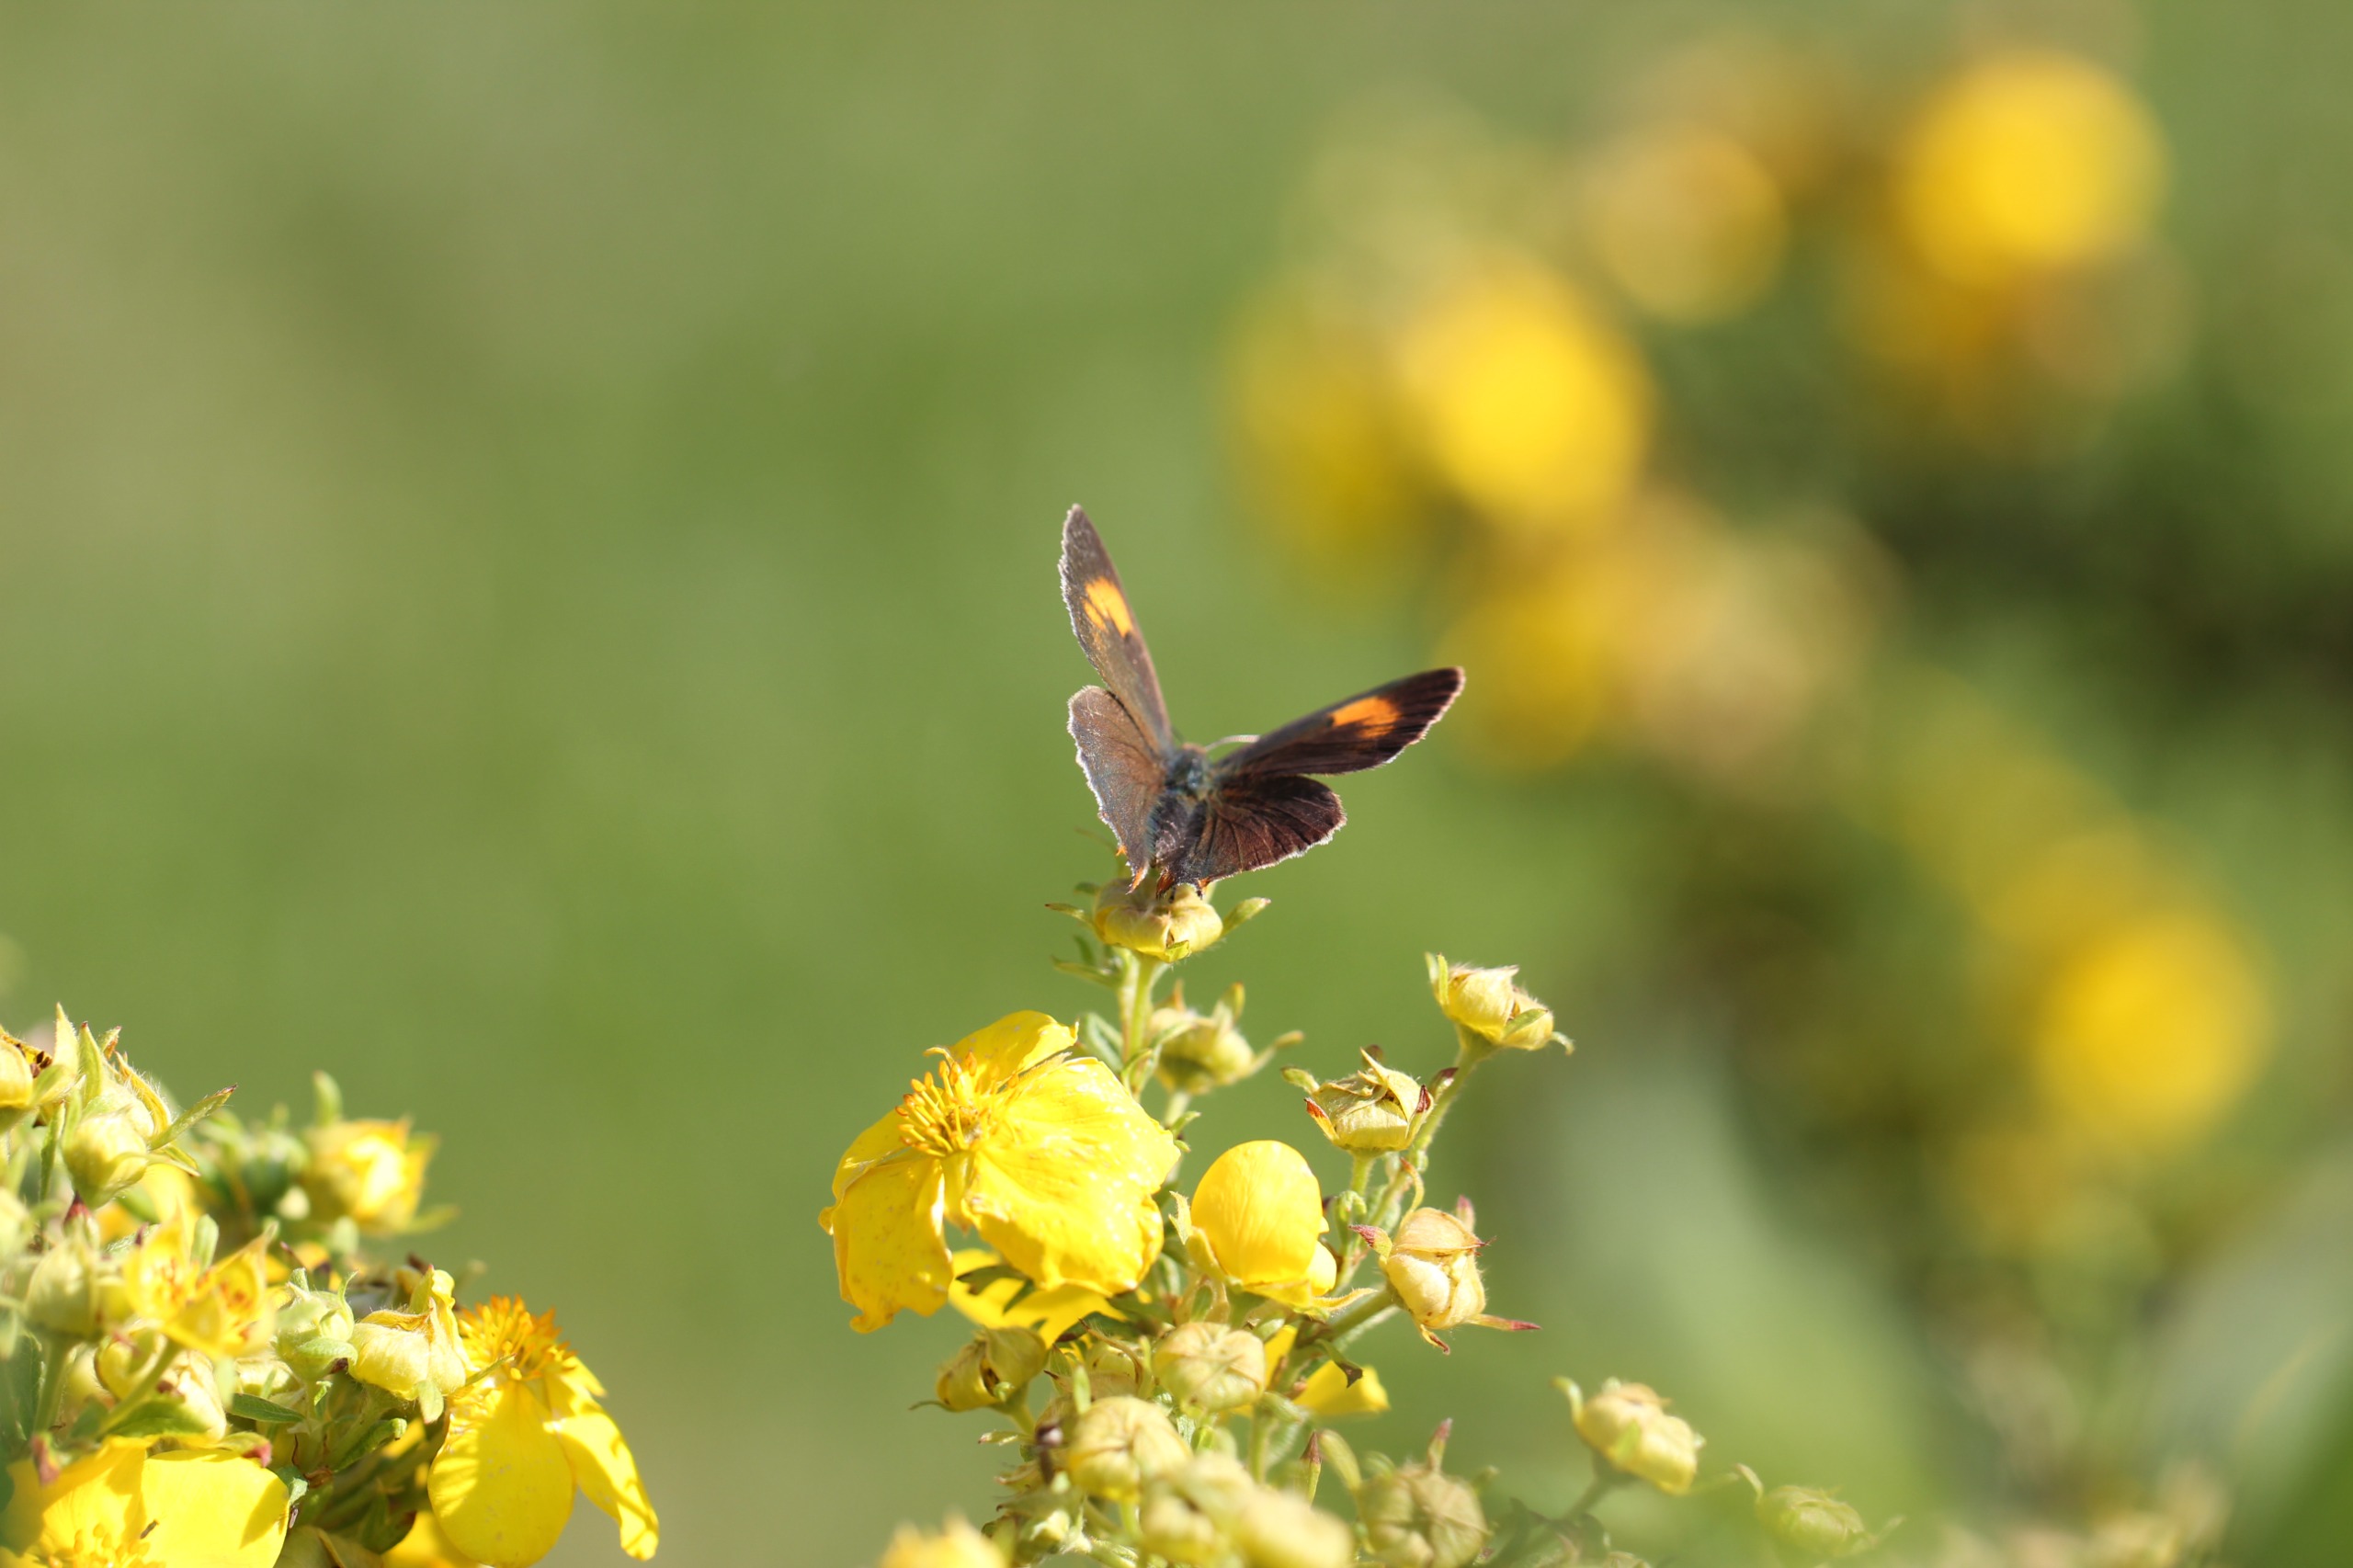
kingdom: Animalia
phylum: Arthropoda
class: Insecta
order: Lepidoptera
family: Lycaenidae
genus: Thecla
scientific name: Thecla betulae
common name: Guldhale
